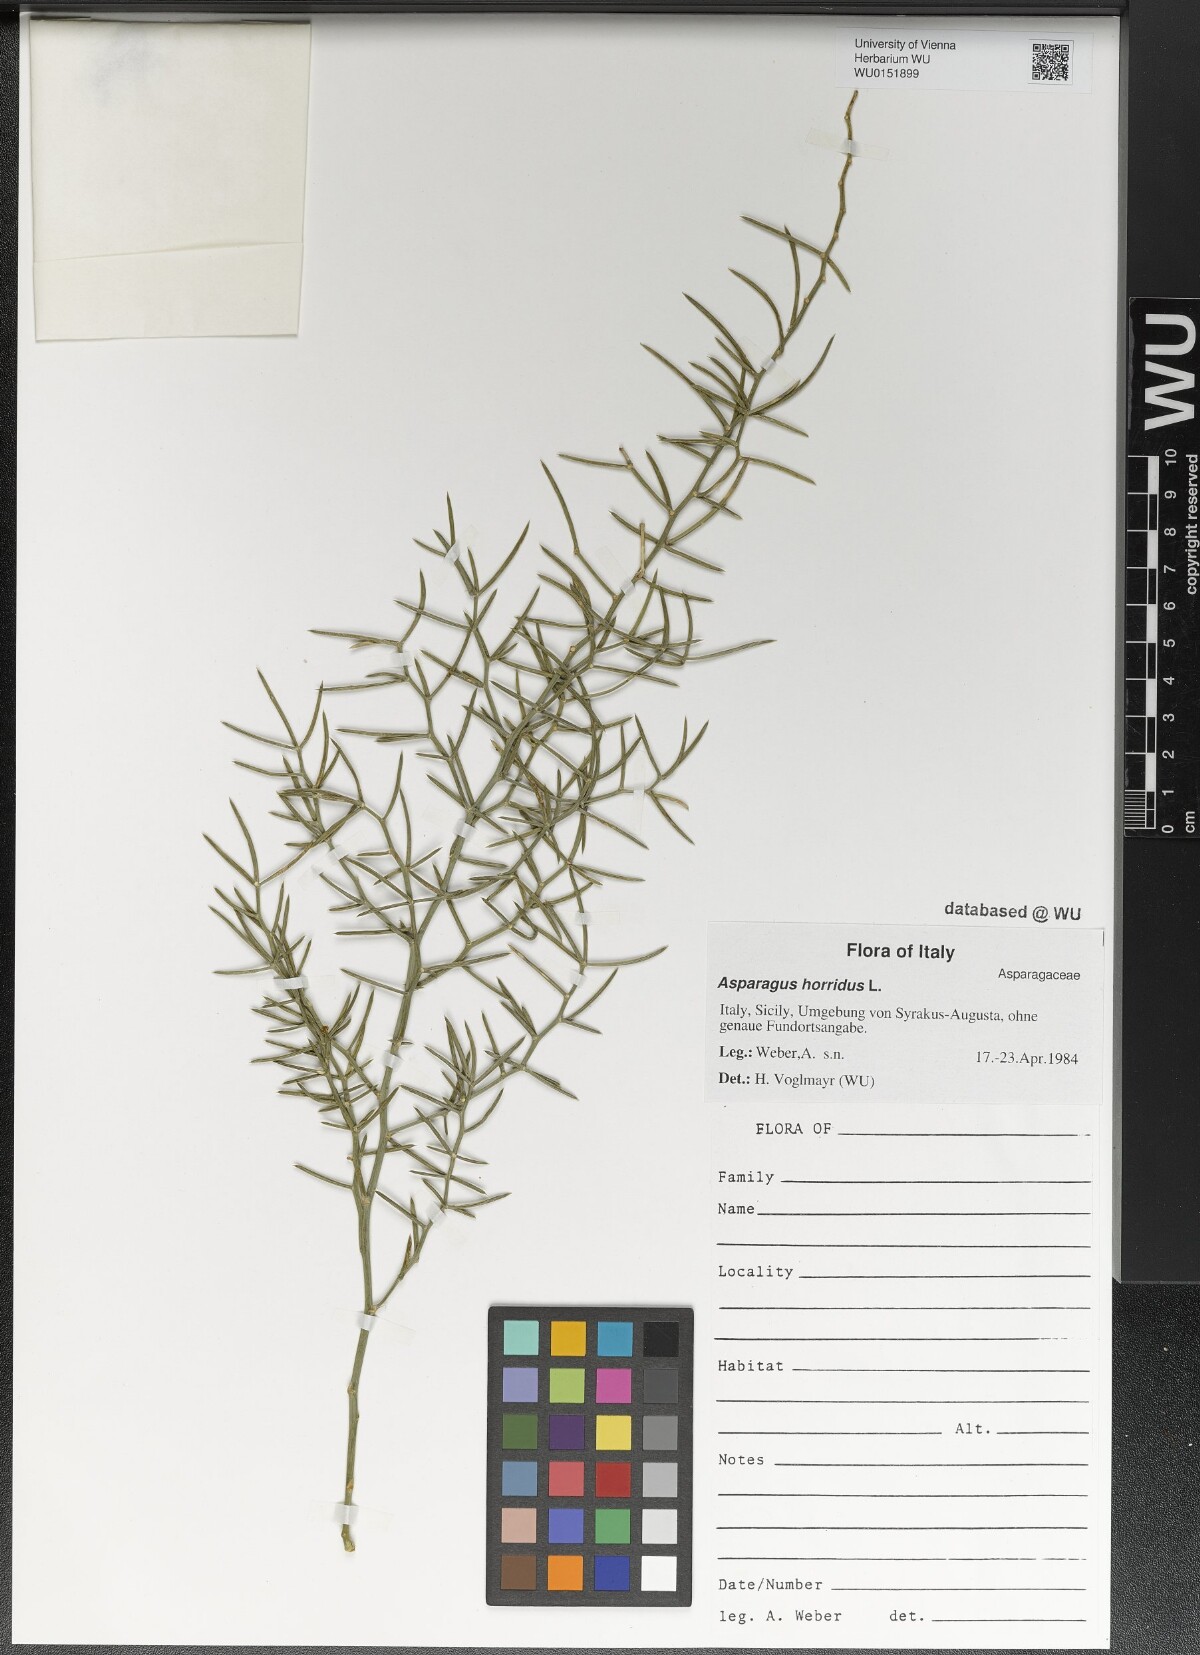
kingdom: Plantae
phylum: Tracheophyta
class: Liliopsida
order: Asparagales
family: Asparagaceae
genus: Asparagus
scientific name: Asparagus horridus
